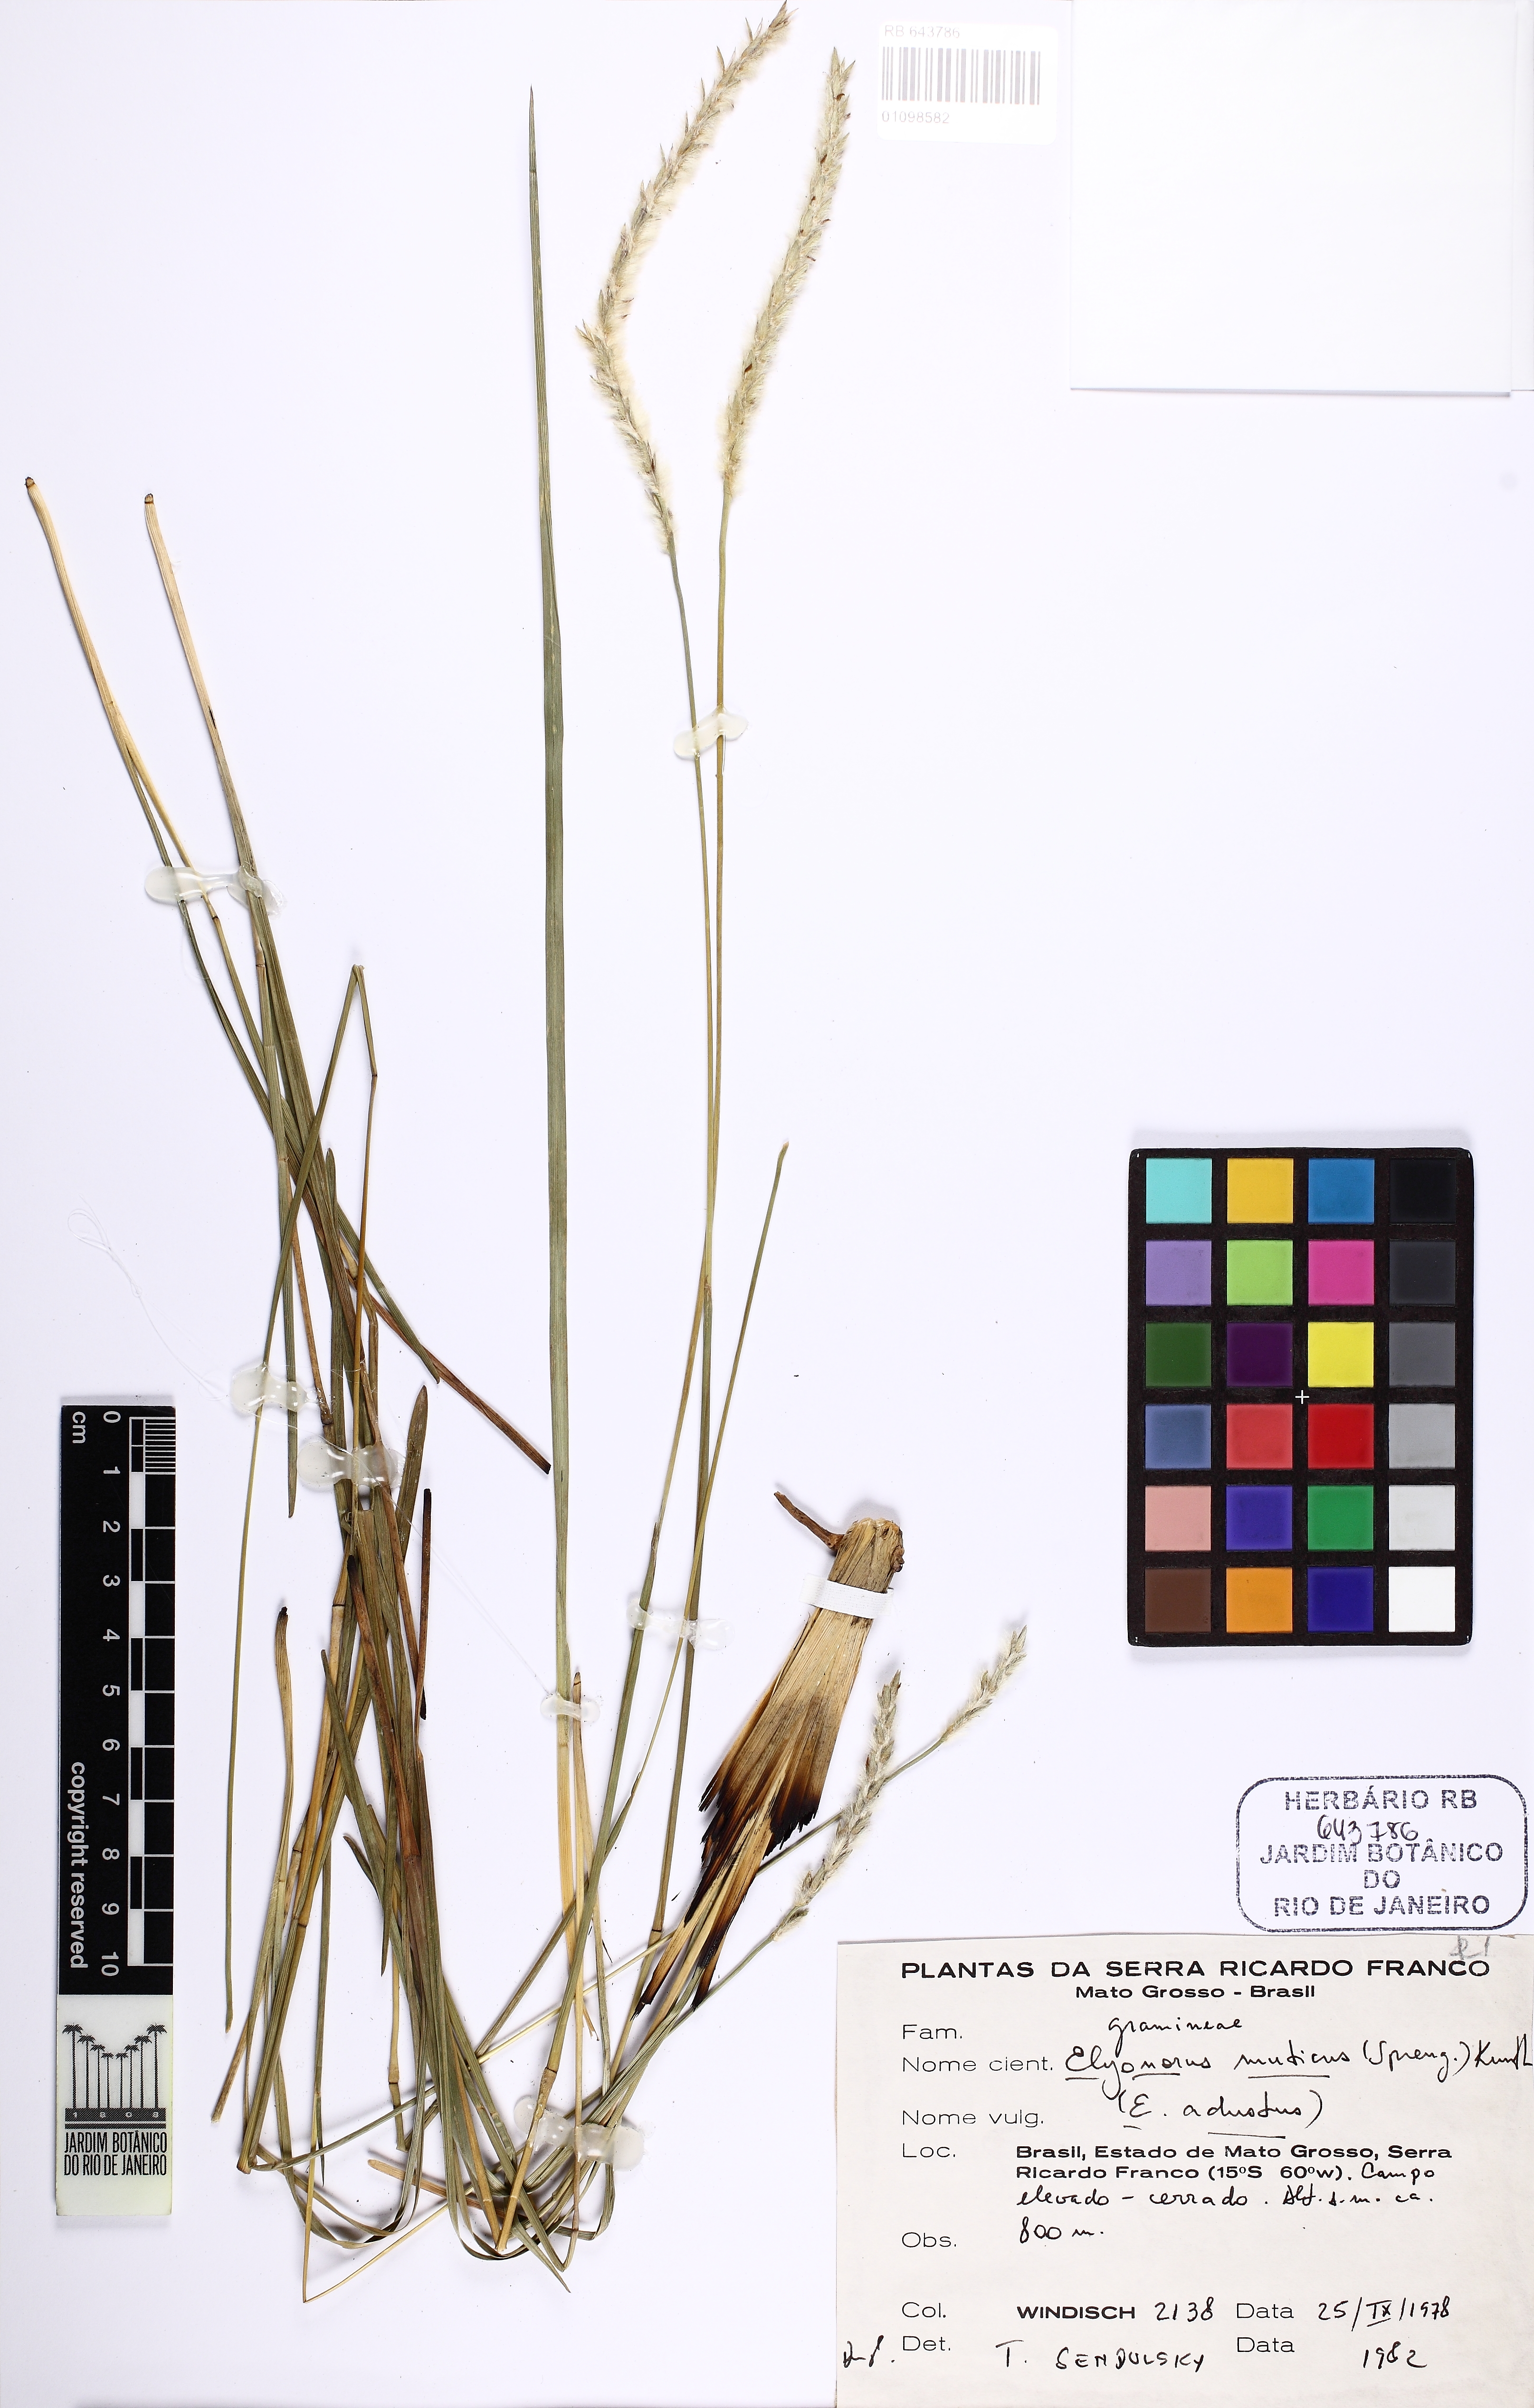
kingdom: Plantae
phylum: Tracheophyta
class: Liliopsida
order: Poales
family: Poaceae
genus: Elionurus
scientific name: Elionurus muticus
